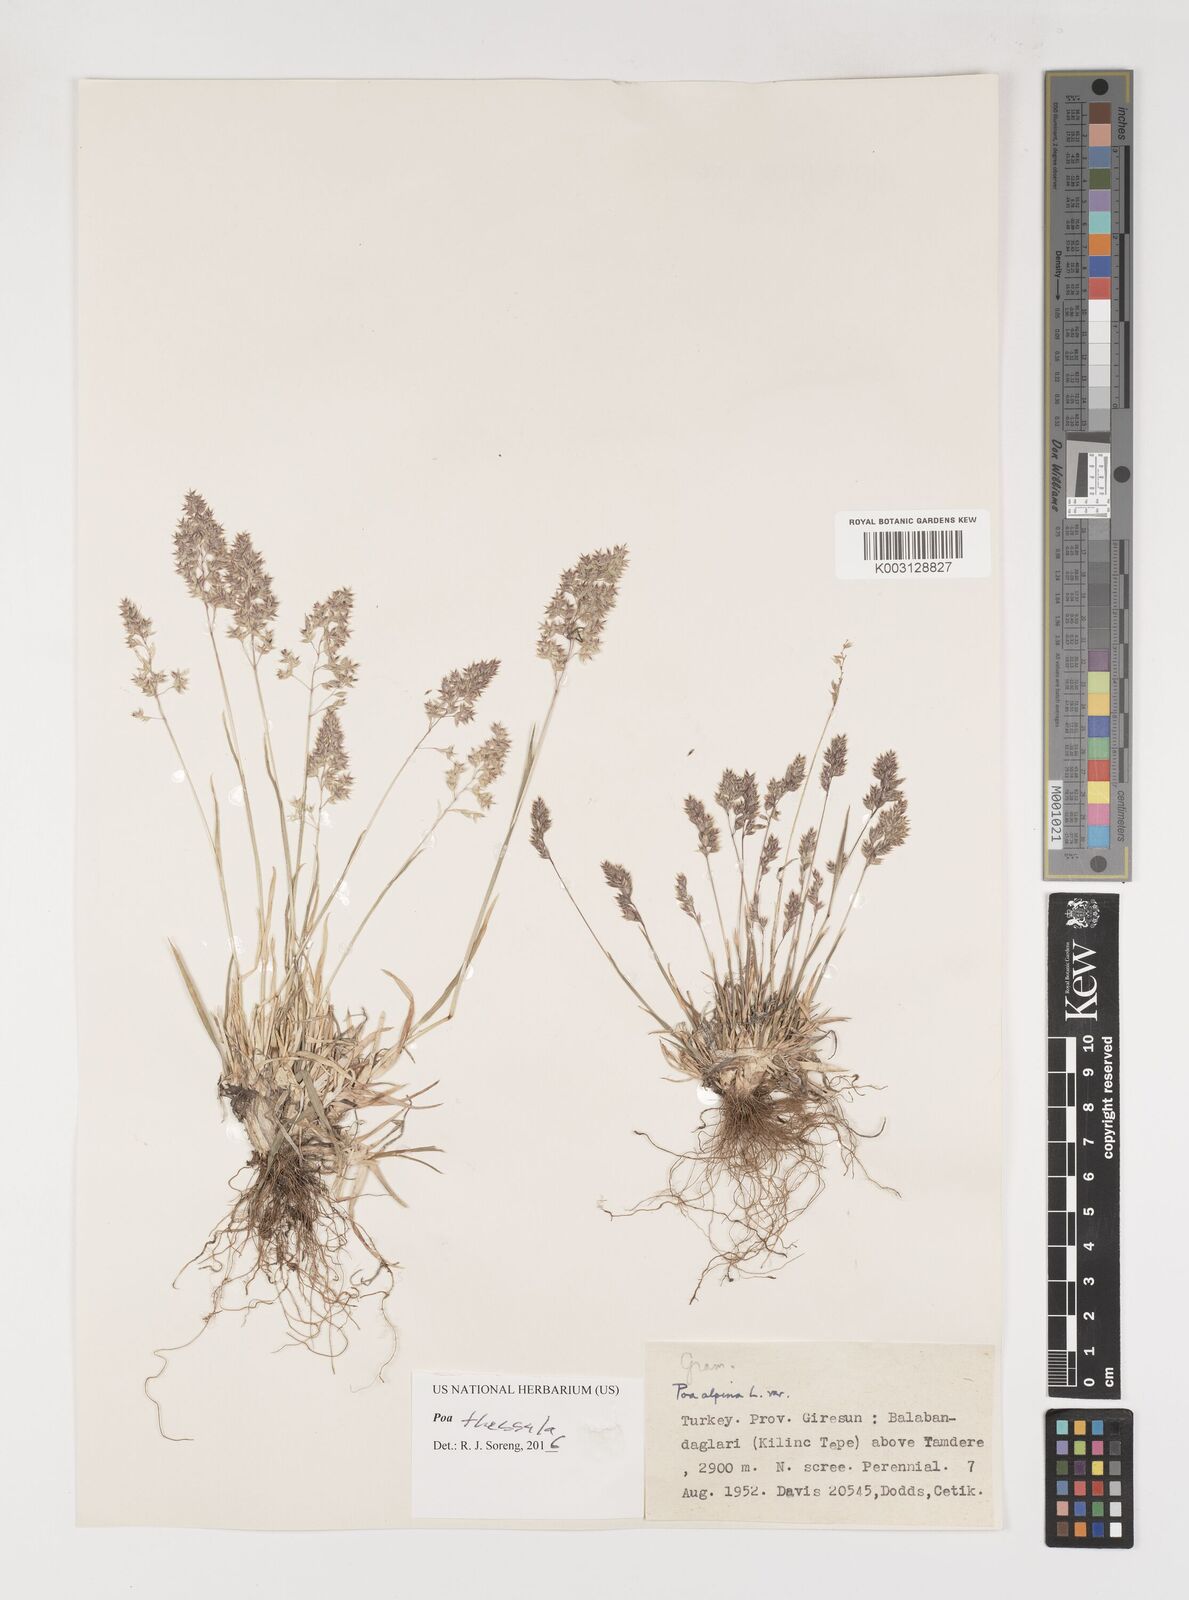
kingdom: Plantae
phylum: Tracheophyta
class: Liliopsida
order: Poales
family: Poaceae
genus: Poa
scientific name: Poa thessala
